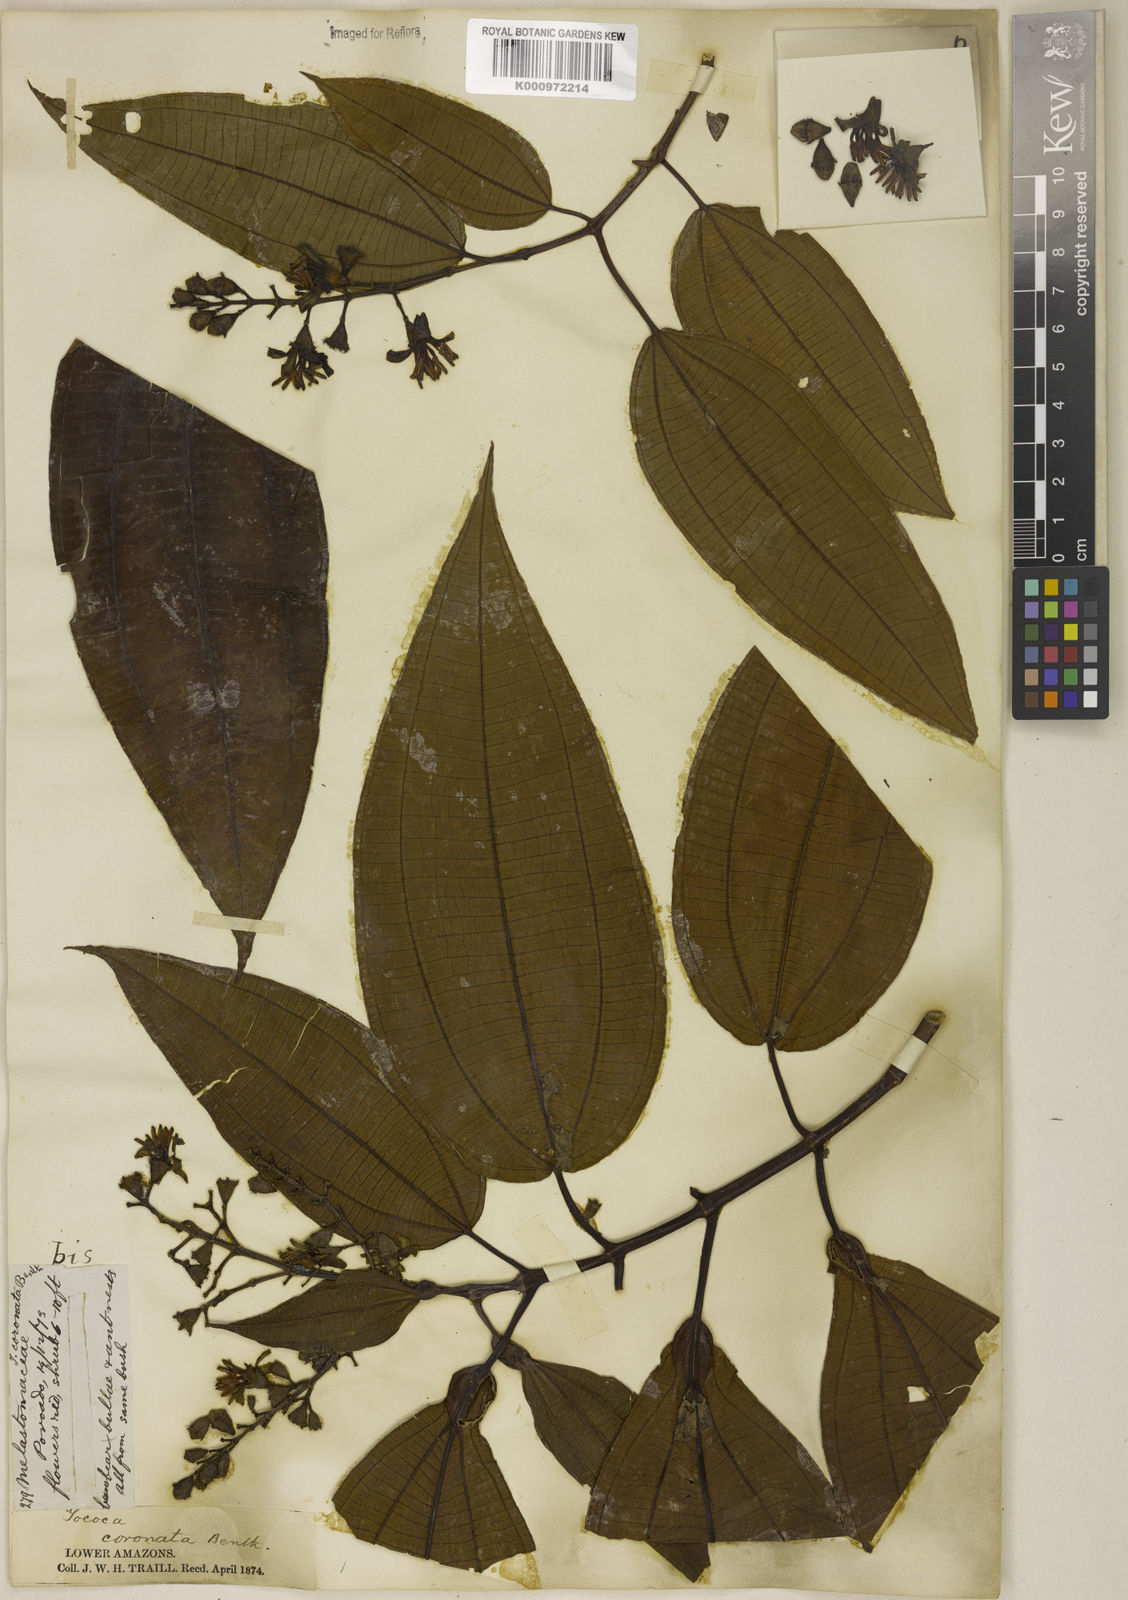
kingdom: Plantae
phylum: Tracheophyta
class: Magnoliopsida
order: Myrtales
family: Melastomataceae
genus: Miconia
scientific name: Miconia tococoronata
